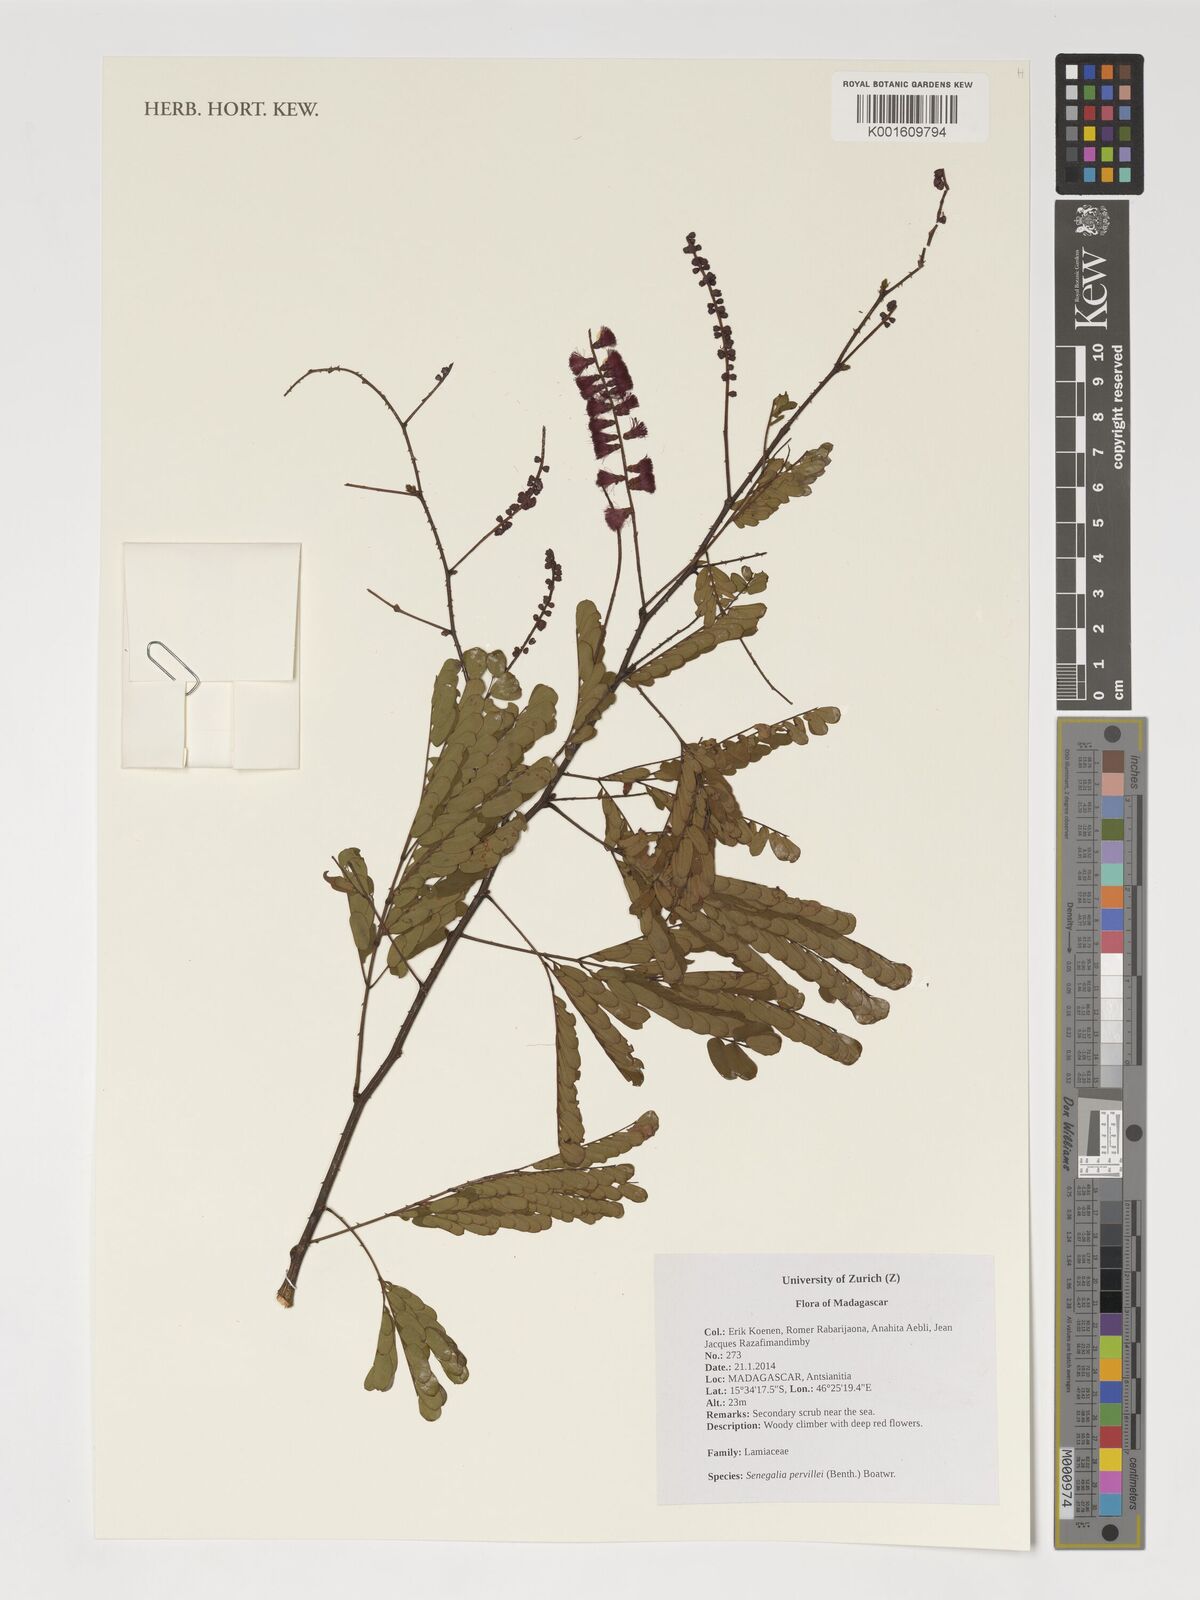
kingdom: Plantae
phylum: Tracheophyta
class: Magnoliopsida
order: Fabales
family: Fabaceae
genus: Senegalia
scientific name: Senegalia pervillei
